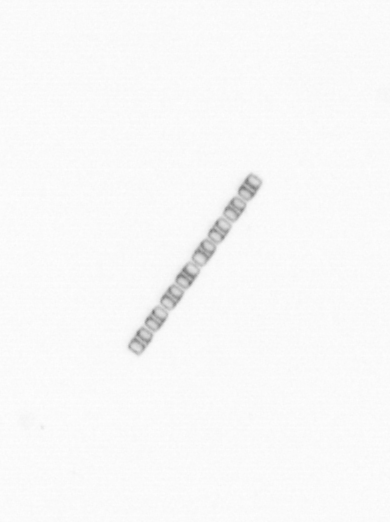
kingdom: Chromista
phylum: Ochrophyta
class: Bacillariophyceae
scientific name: Bacillariophyceae
